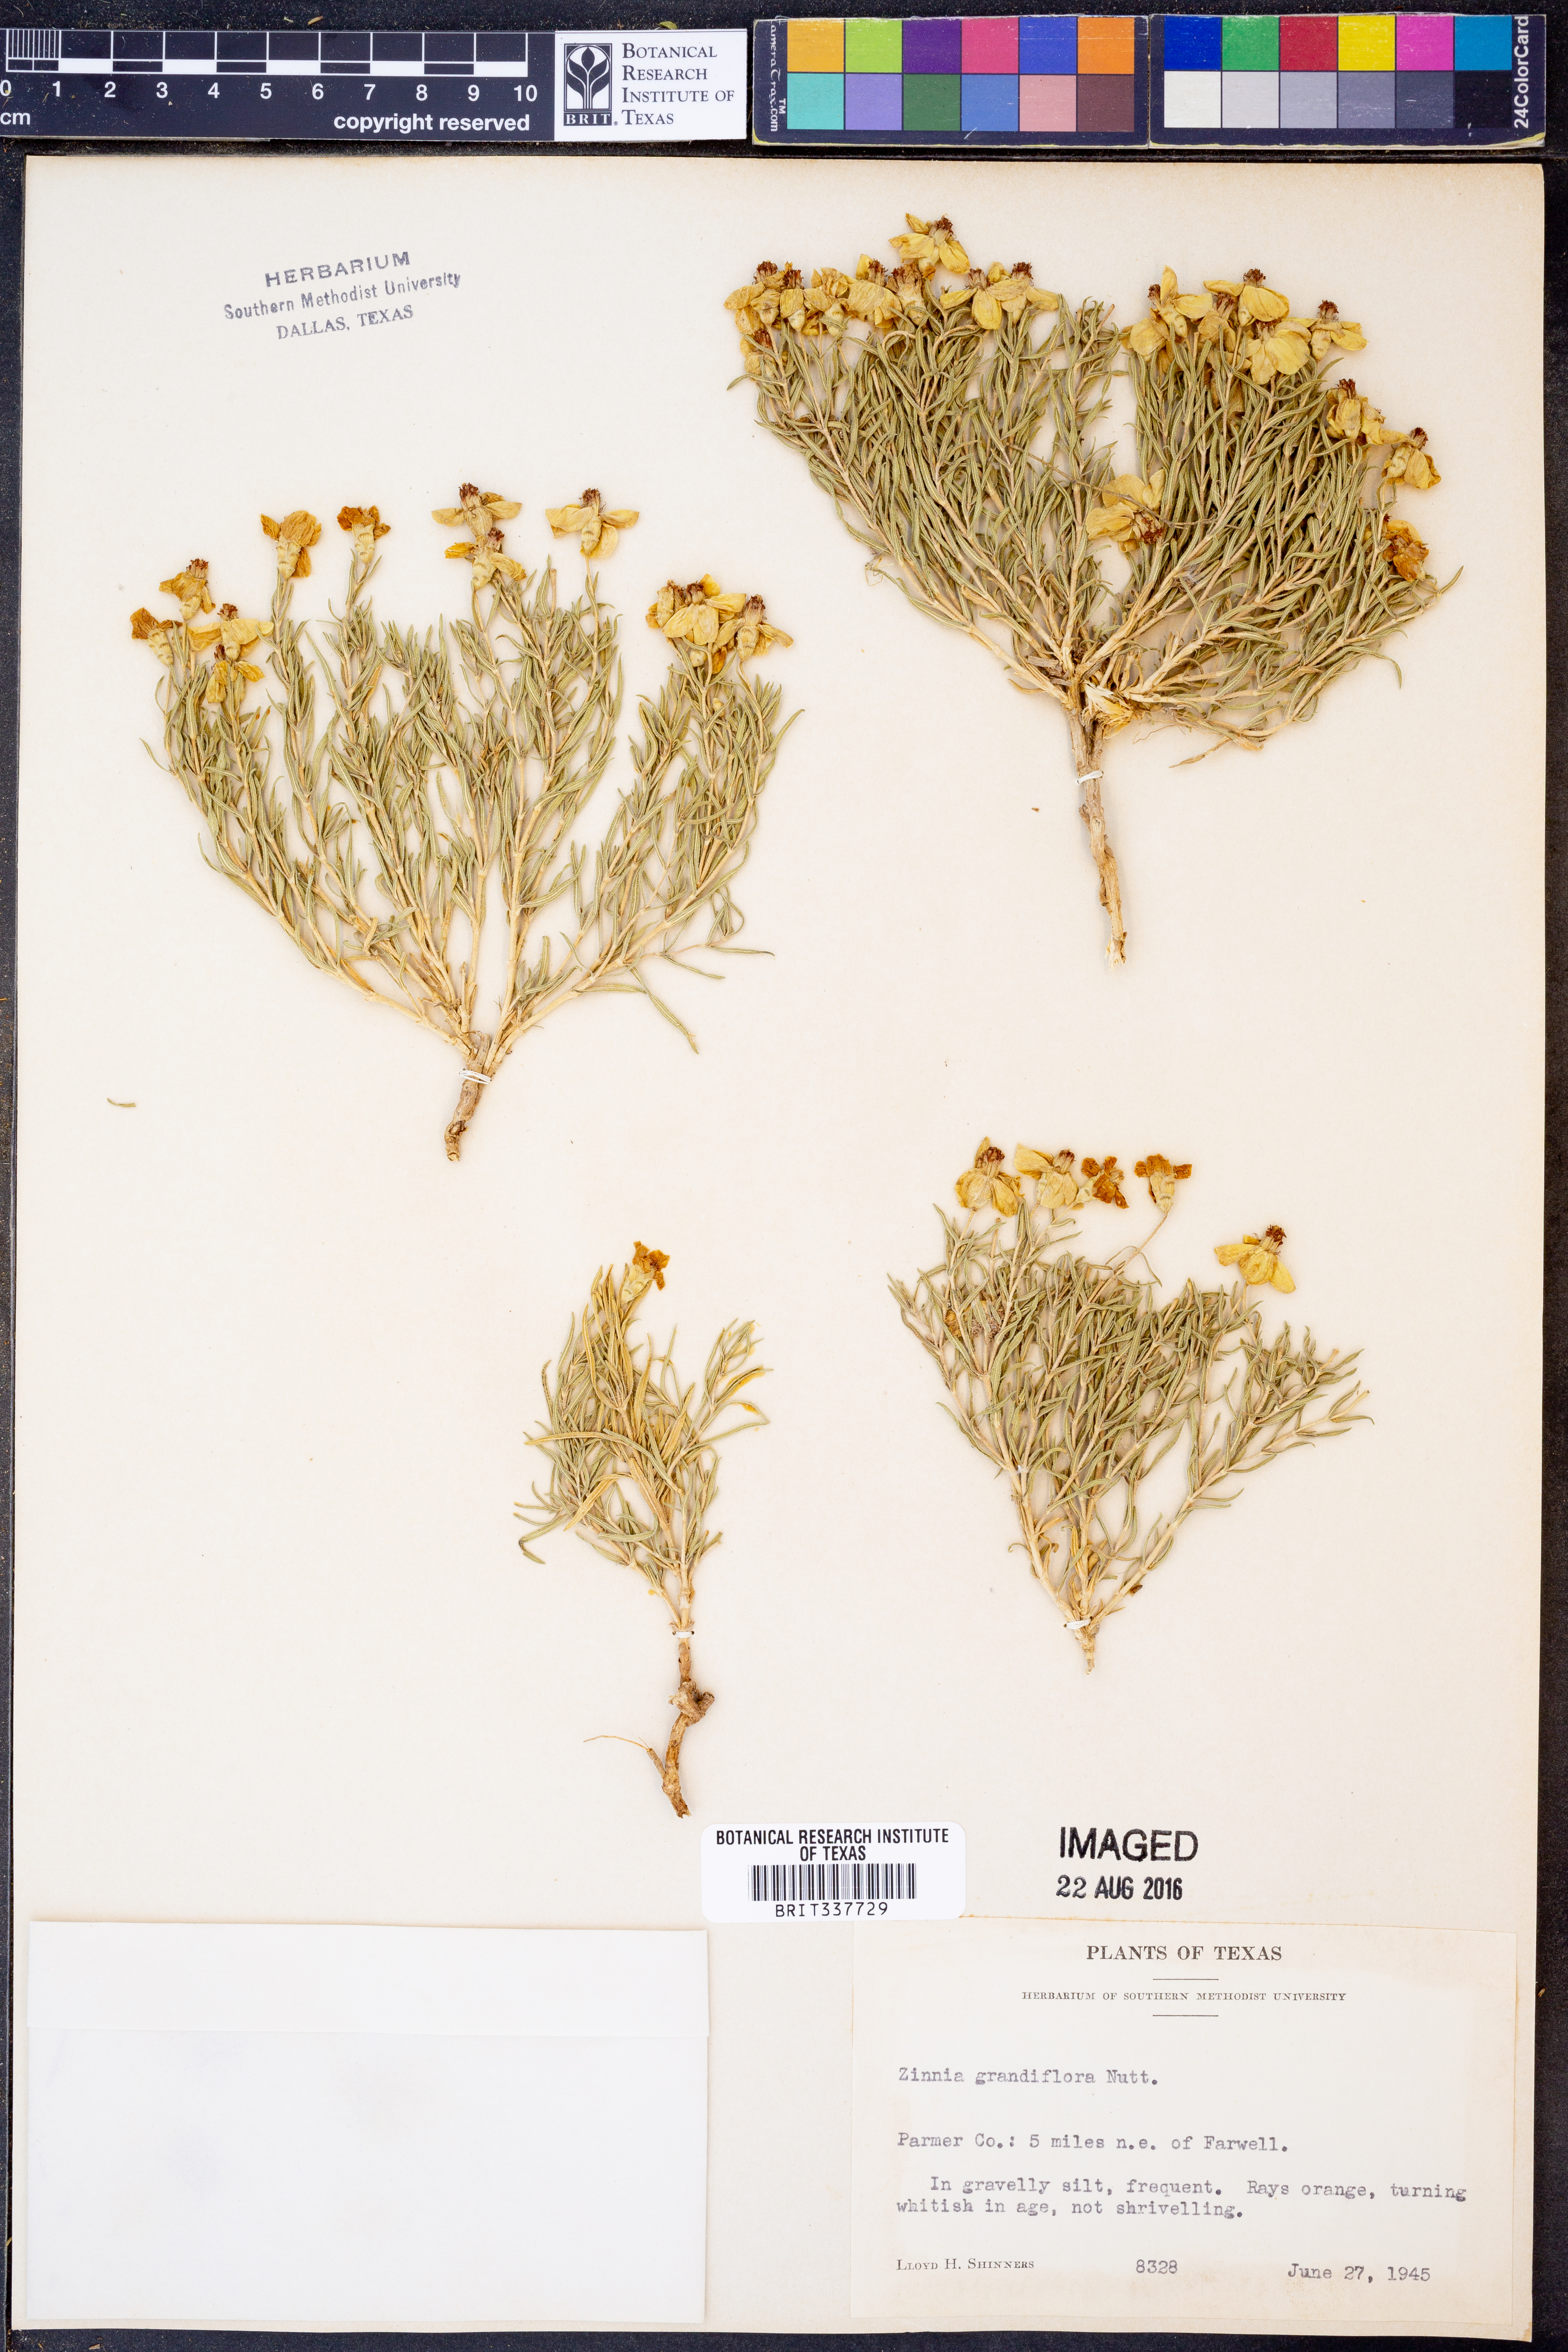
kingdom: Plantae
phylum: Tracheophyta
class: Magnoliopsida
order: Asterales
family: Asteraceae
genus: Zinnia
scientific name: Zinnia grandiflora
